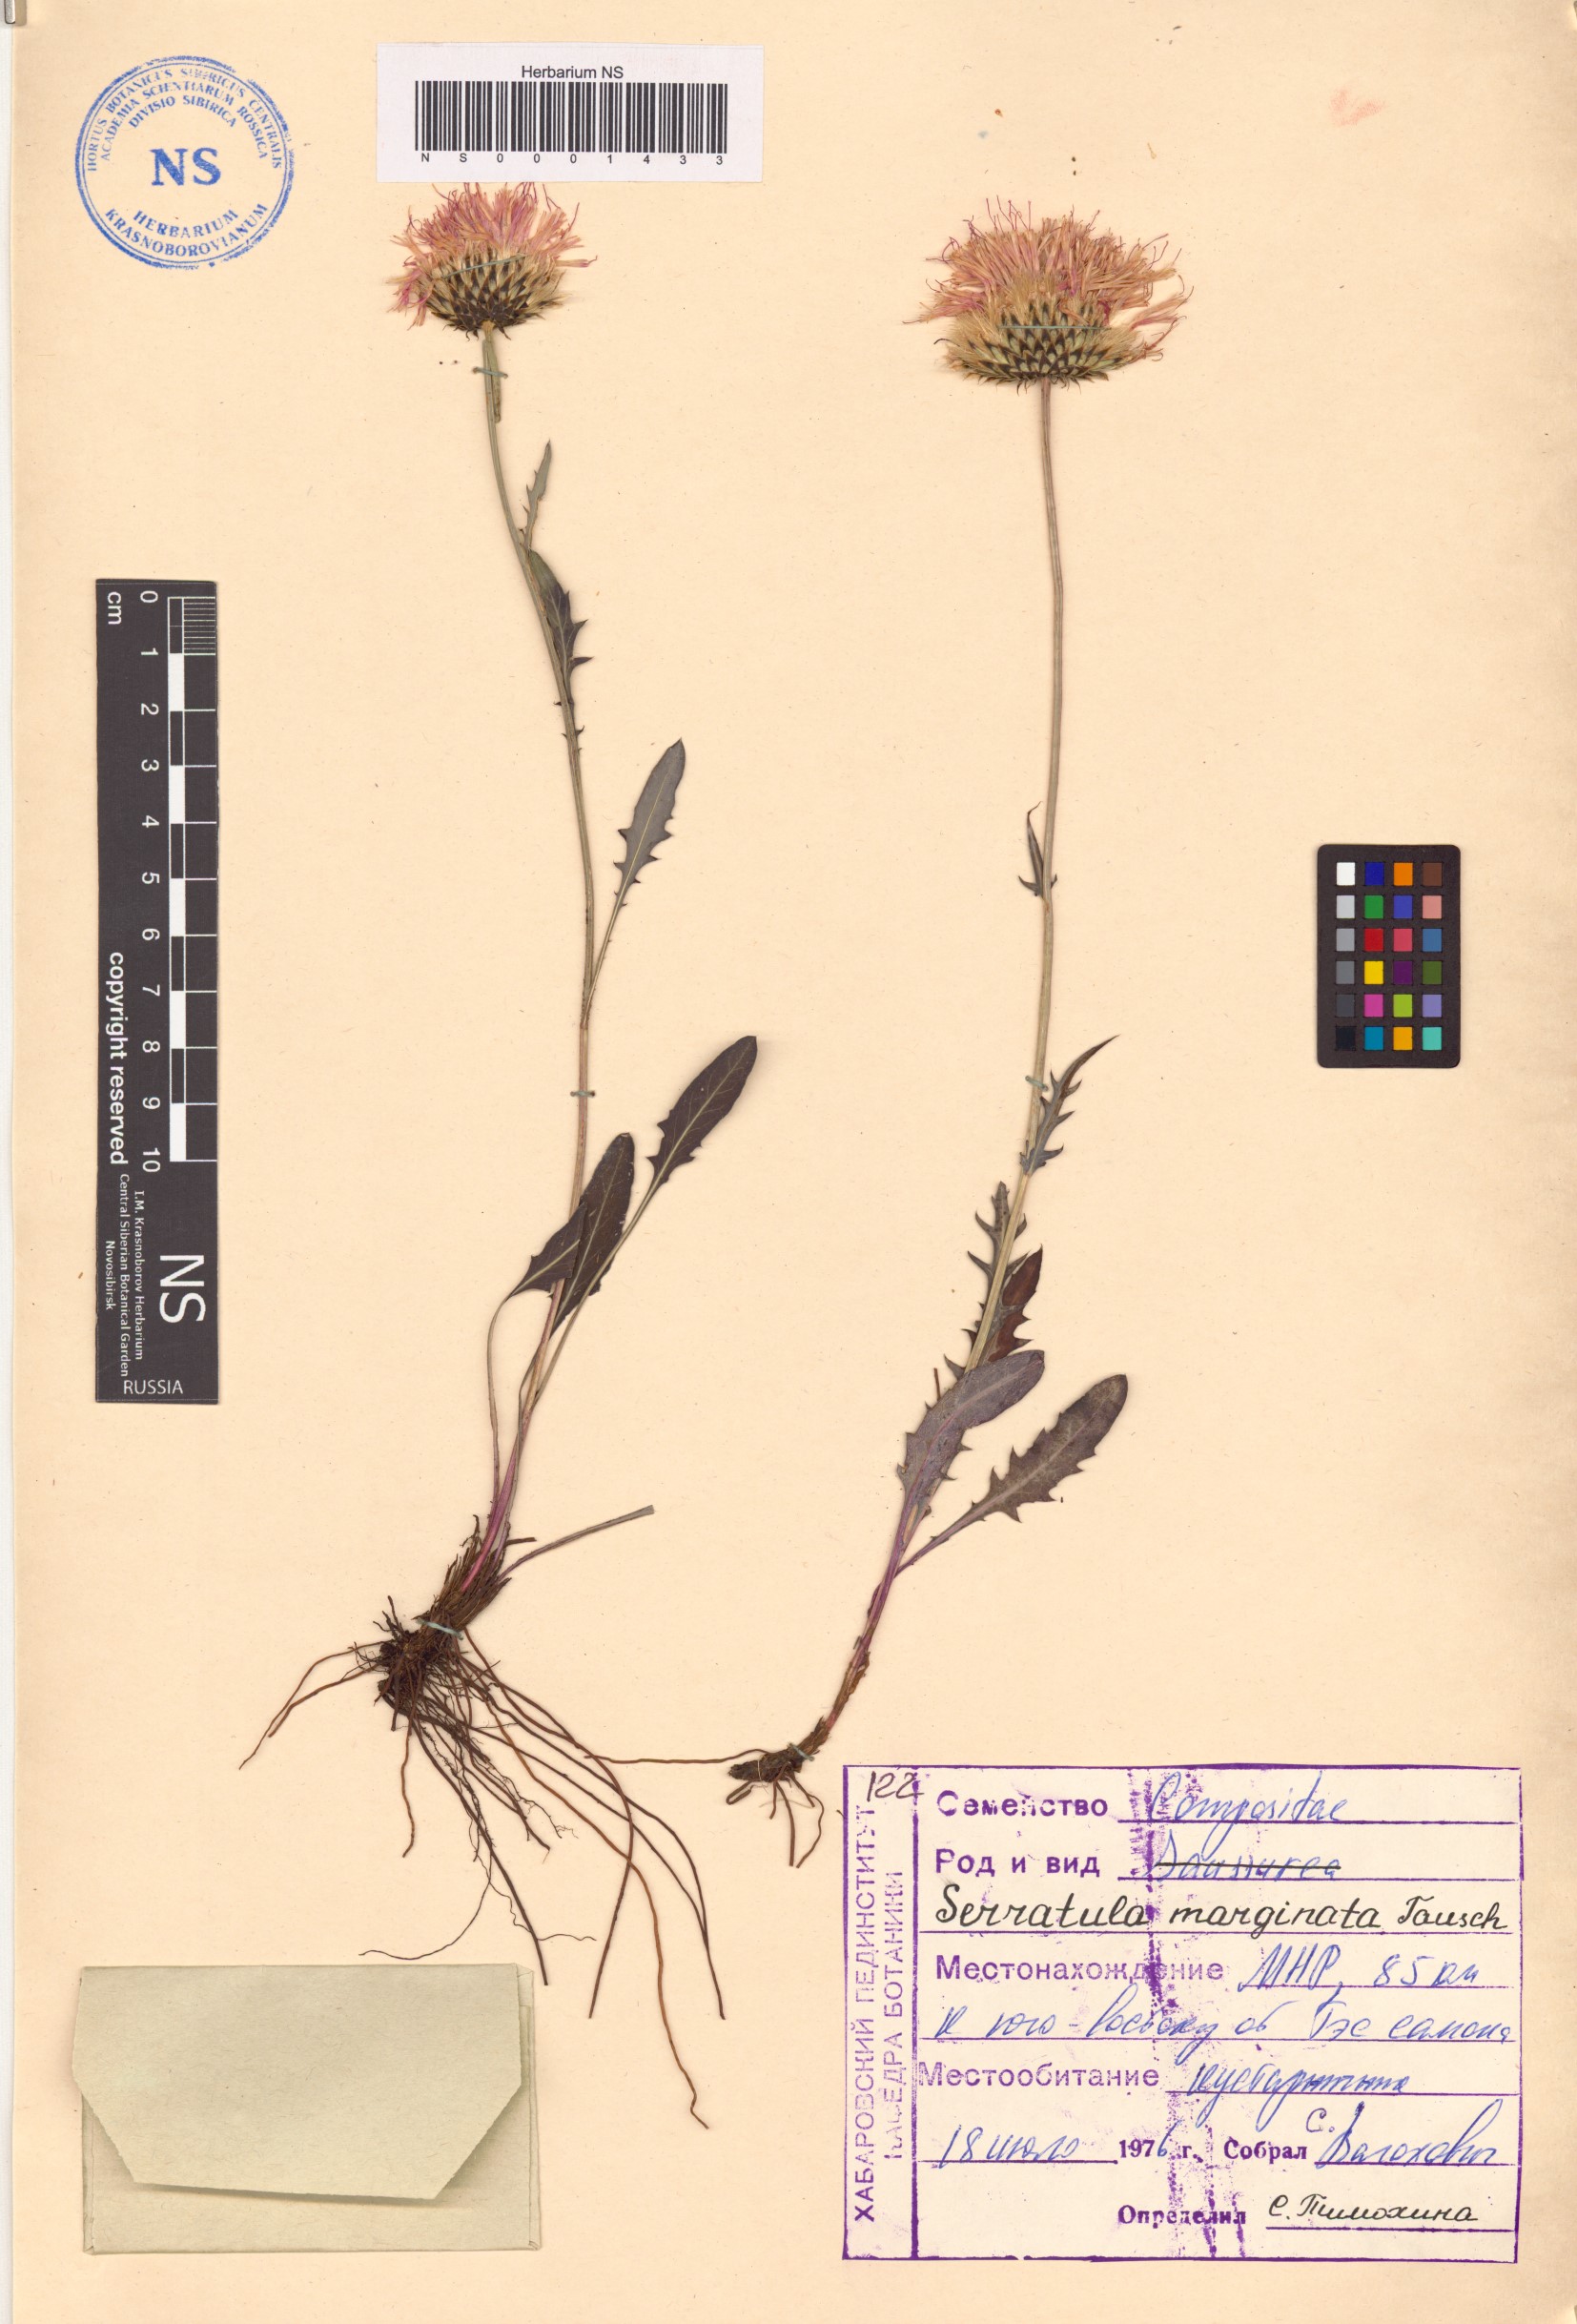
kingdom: Plantae
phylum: Tracheophyta
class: Magnoliopsida
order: Asterales
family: Asteraceae
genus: Klasea
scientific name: Klasea marginata
